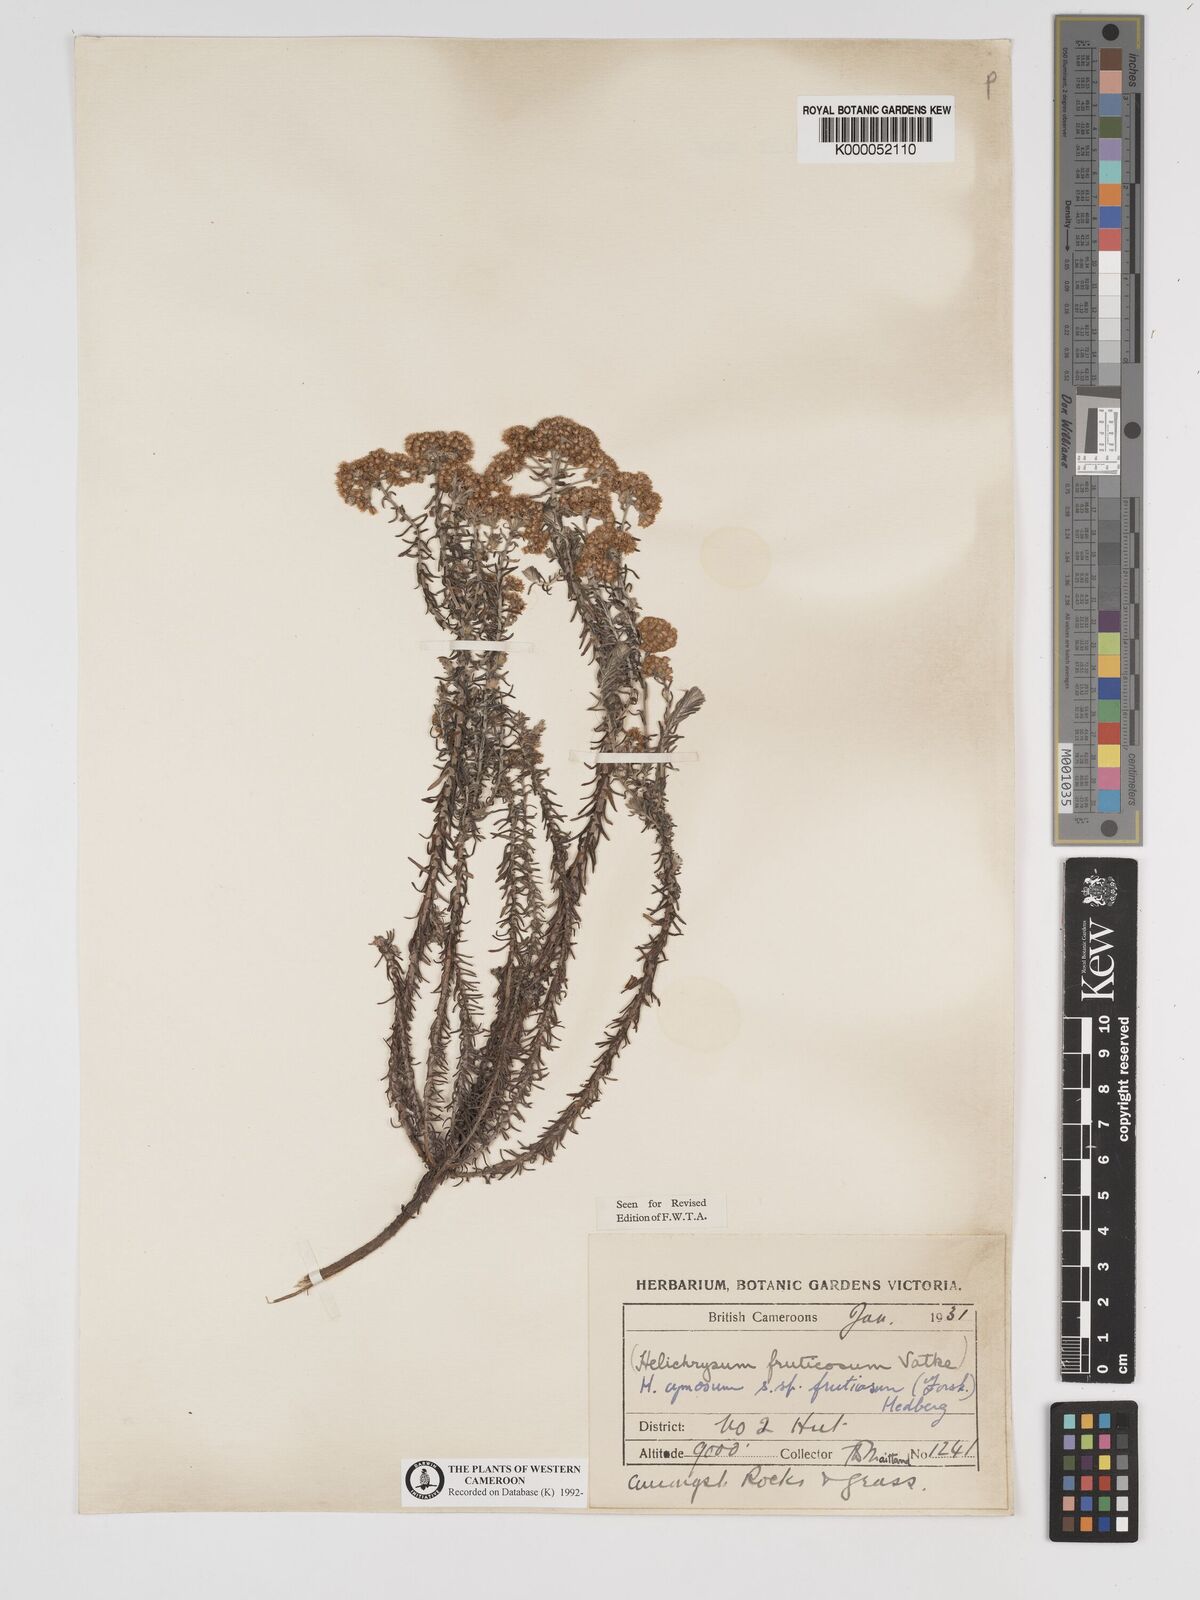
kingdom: Plantae
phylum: Tracheophyta
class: Magnoliopsida
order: Asterales
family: Asteraceae
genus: Helichrysum
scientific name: Helichrysum forskahlii
